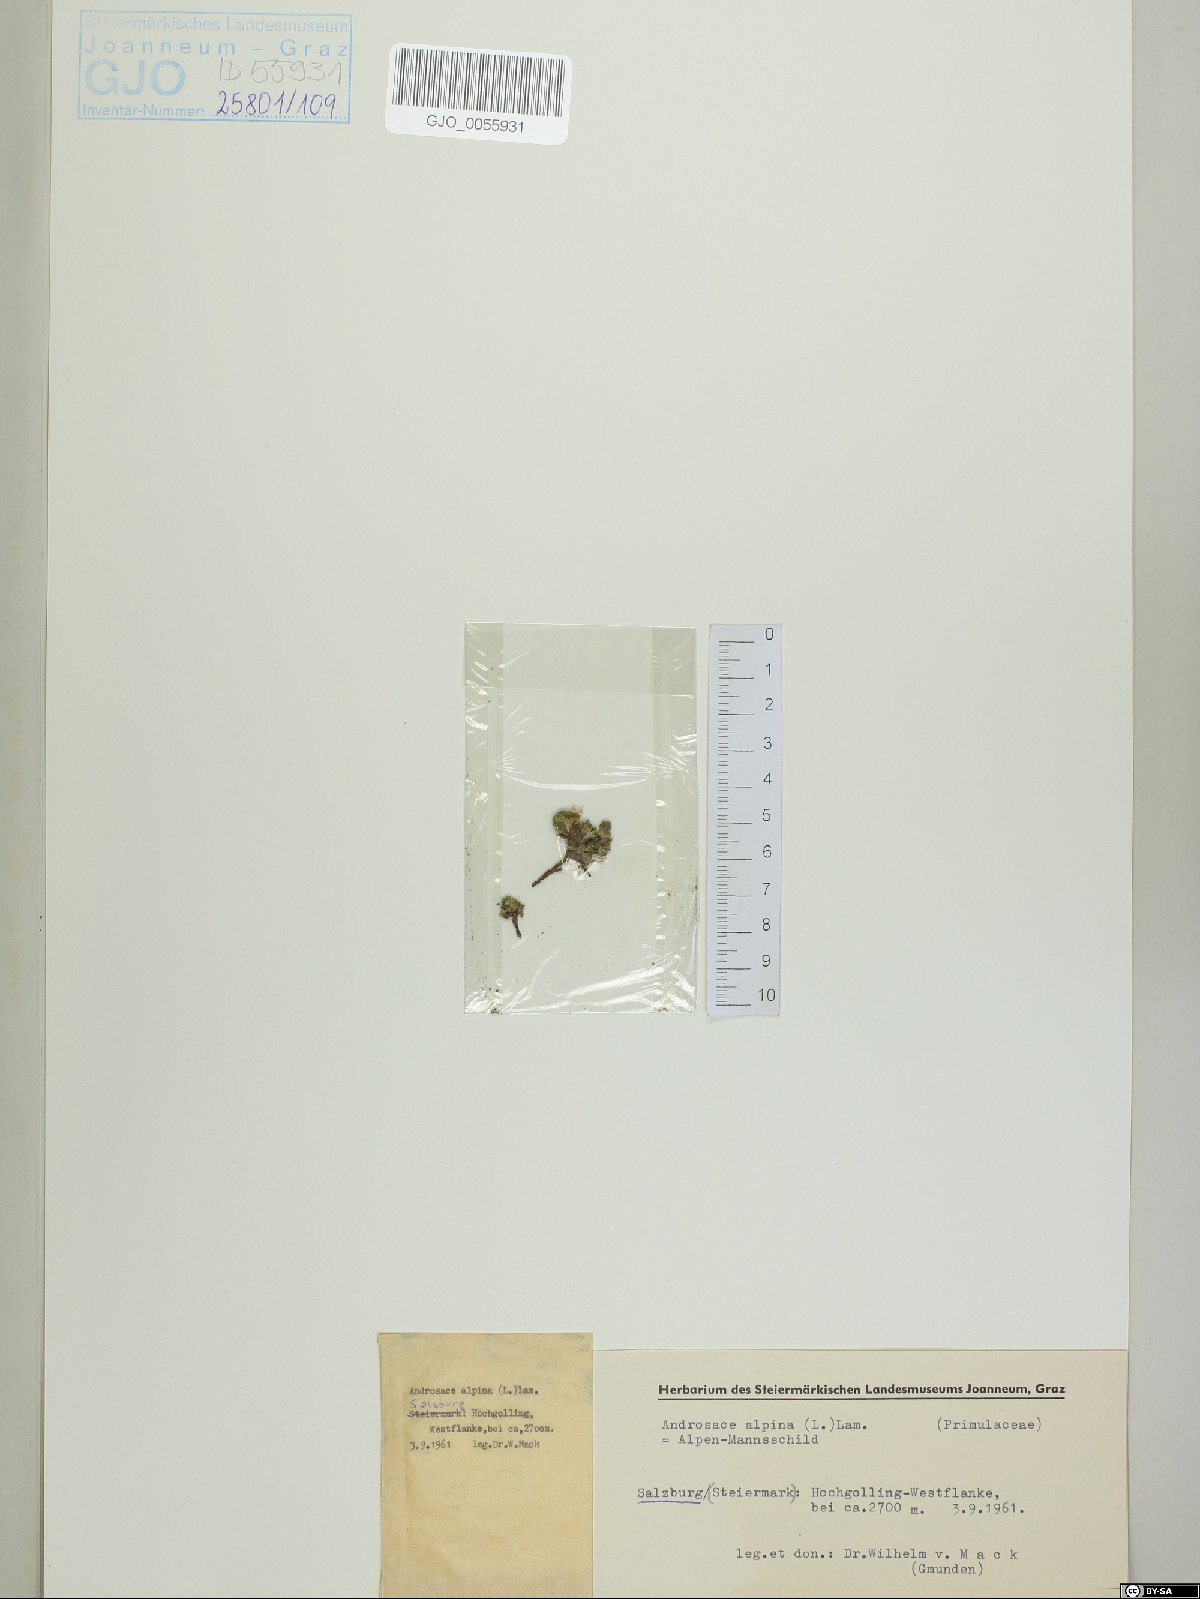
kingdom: Plantae
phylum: Tracheophyta
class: Magnoliopsida
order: Ericales
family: Primulaceae
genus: Androsace
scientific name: Androsace alpina
